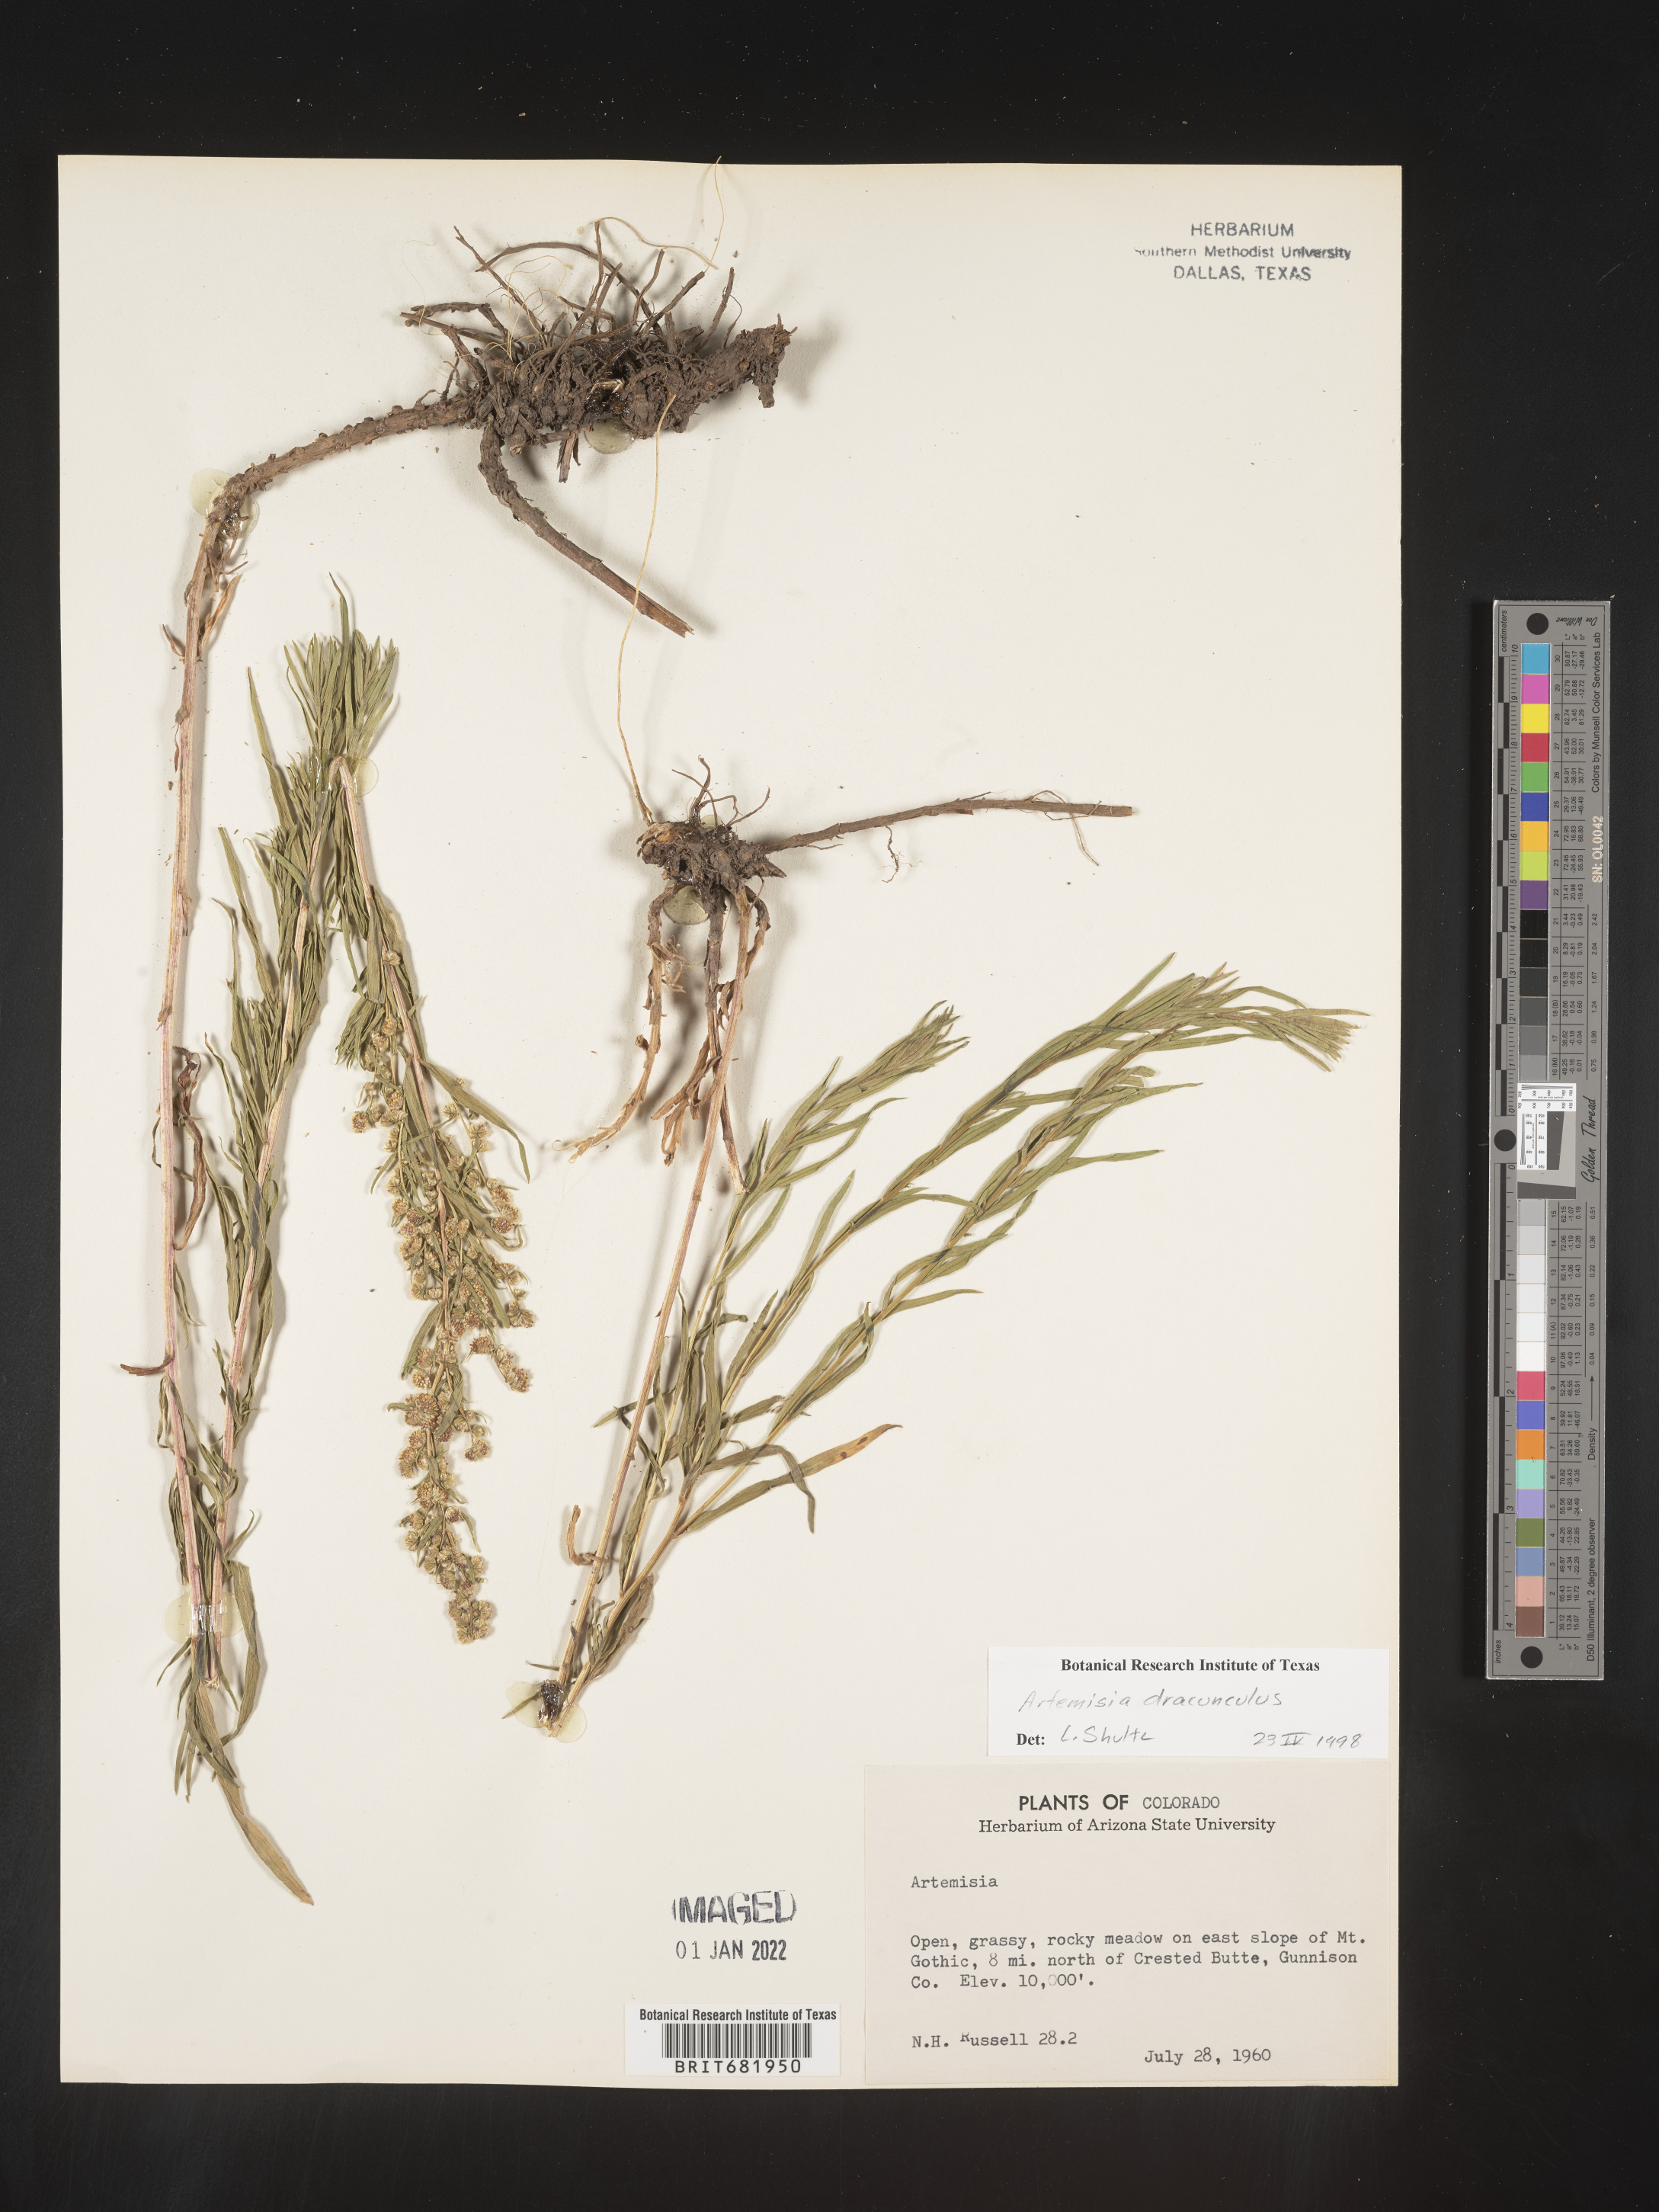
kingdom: Plantae
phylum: Tracheophyta
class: Magnoliopsida
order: Asterales
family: Asteraceae
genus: Artemisia
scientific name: Artemisia dracunculus
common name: Tarragon
